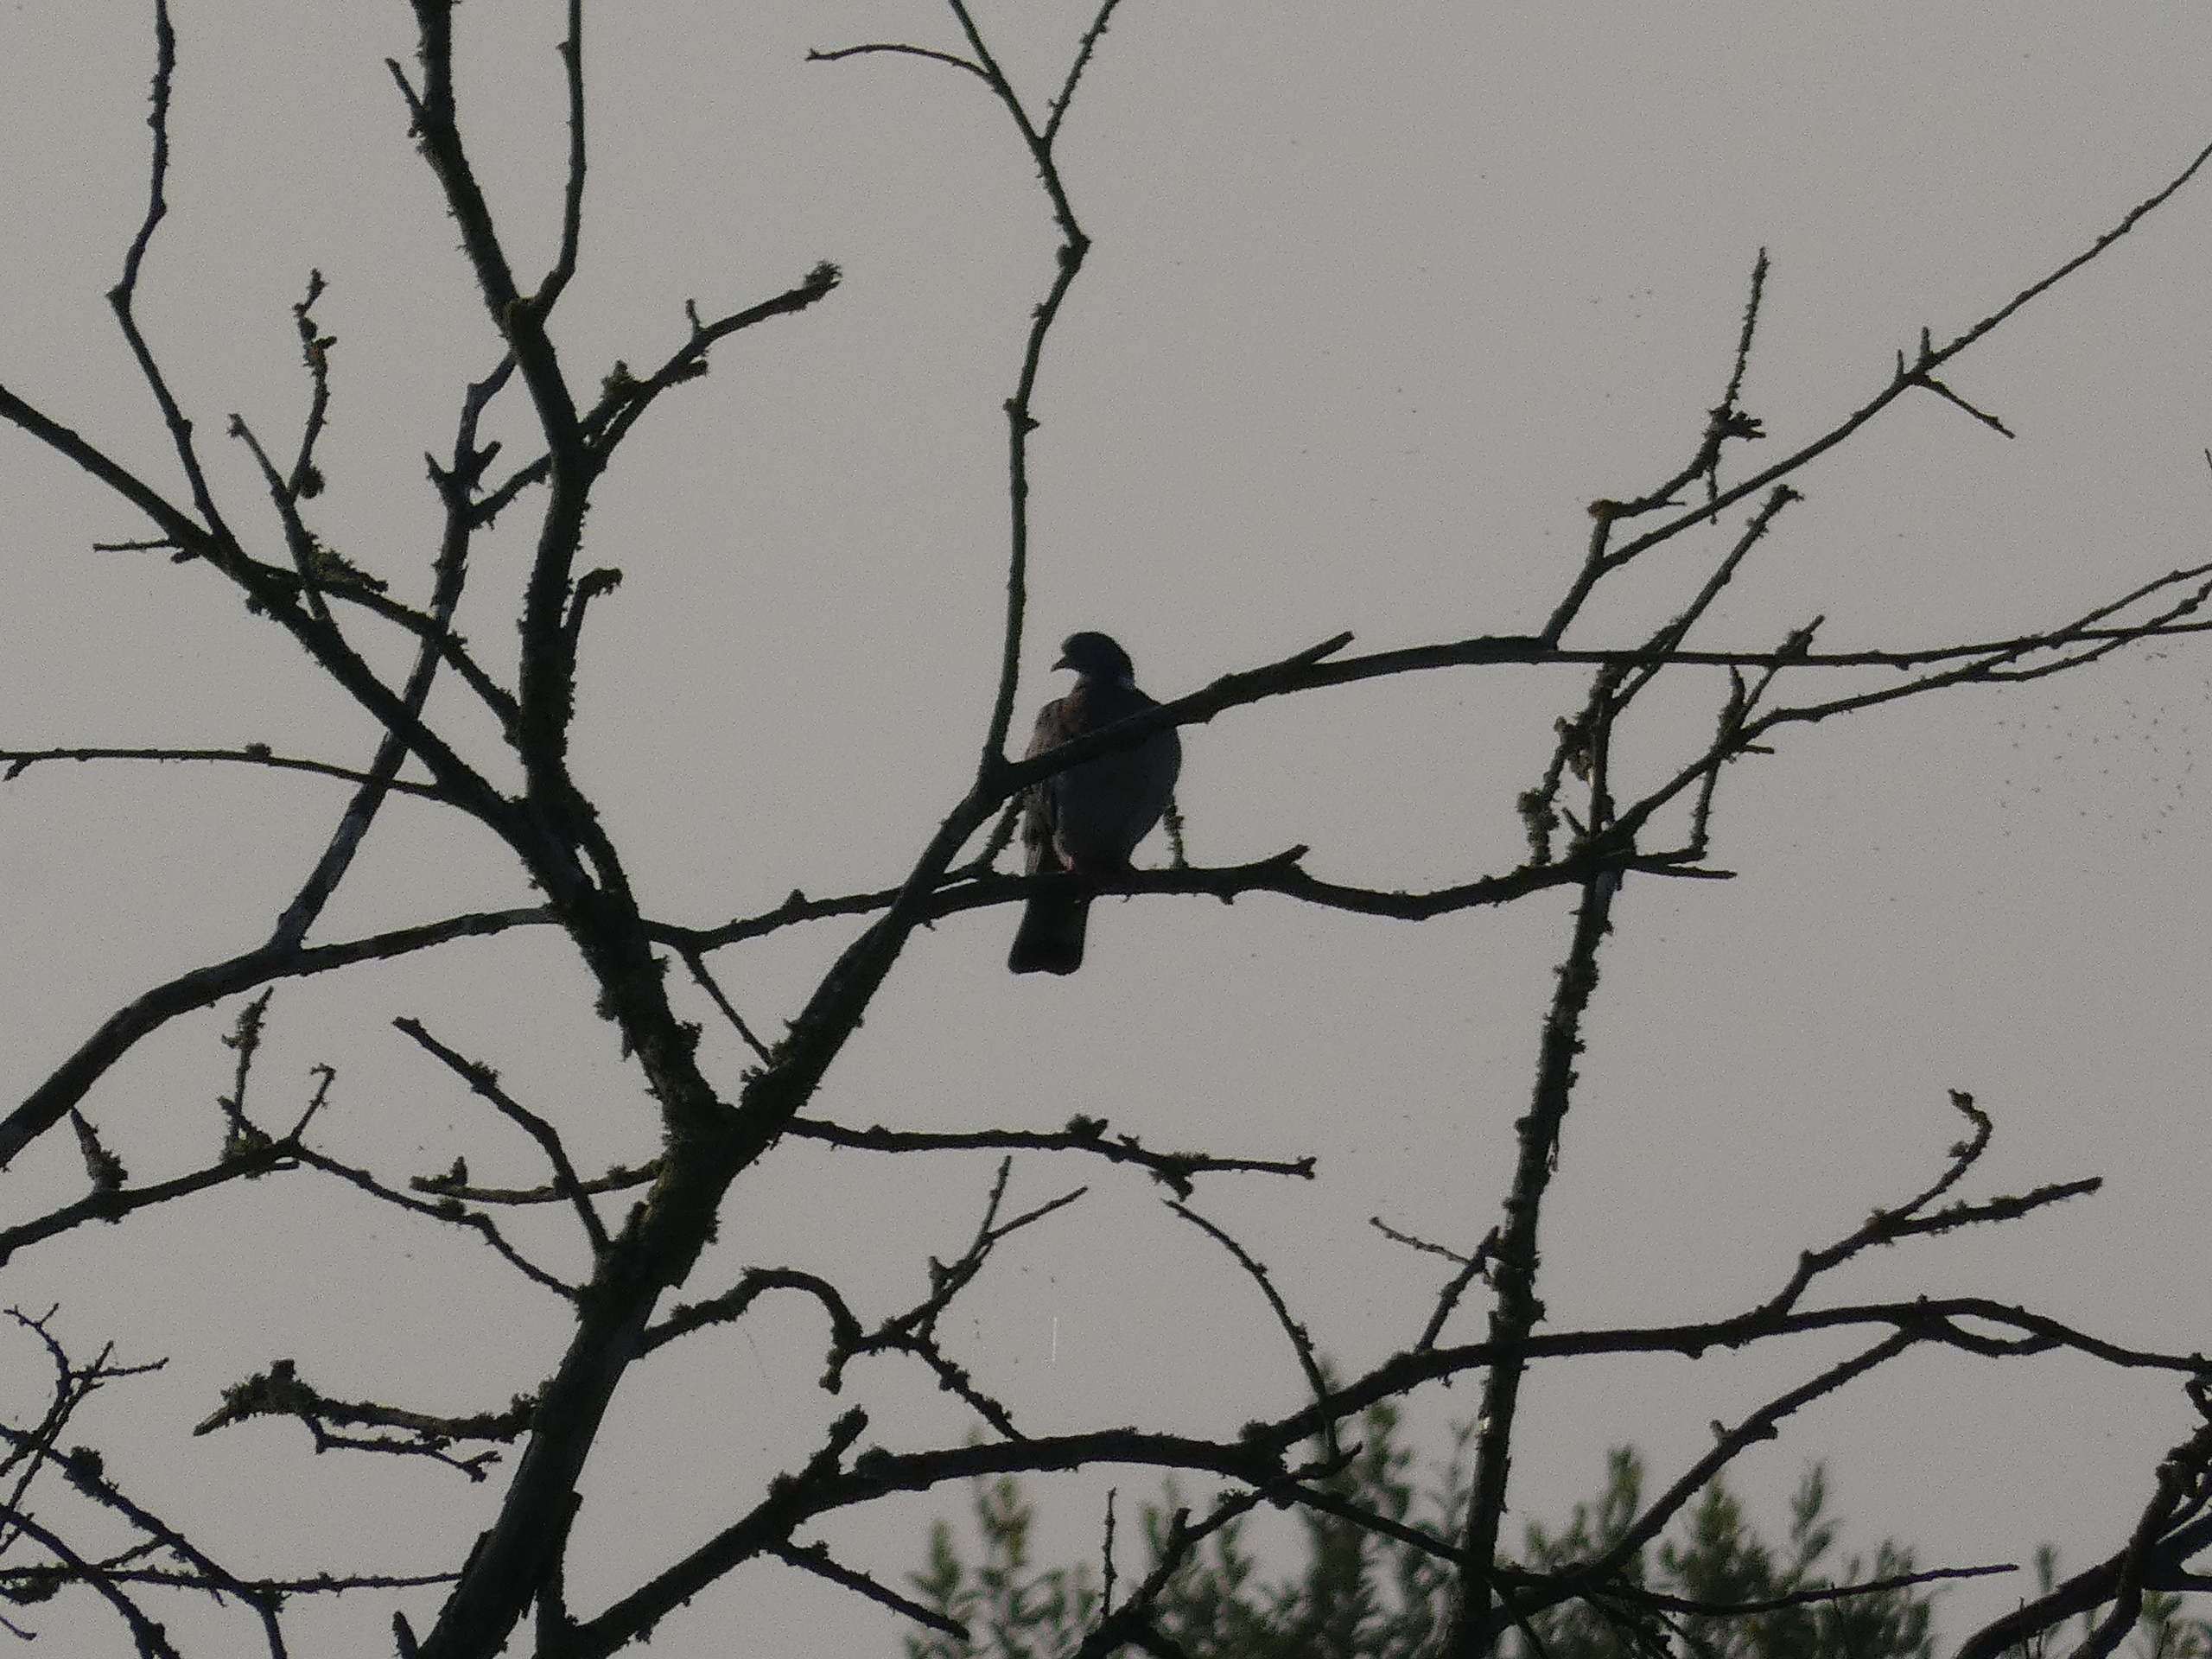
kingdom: Animalia
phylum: Chordata
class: Aves
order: Columbiformes
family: Columbidae
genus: Columba
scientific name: Columba palumbus
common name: Ringdue
